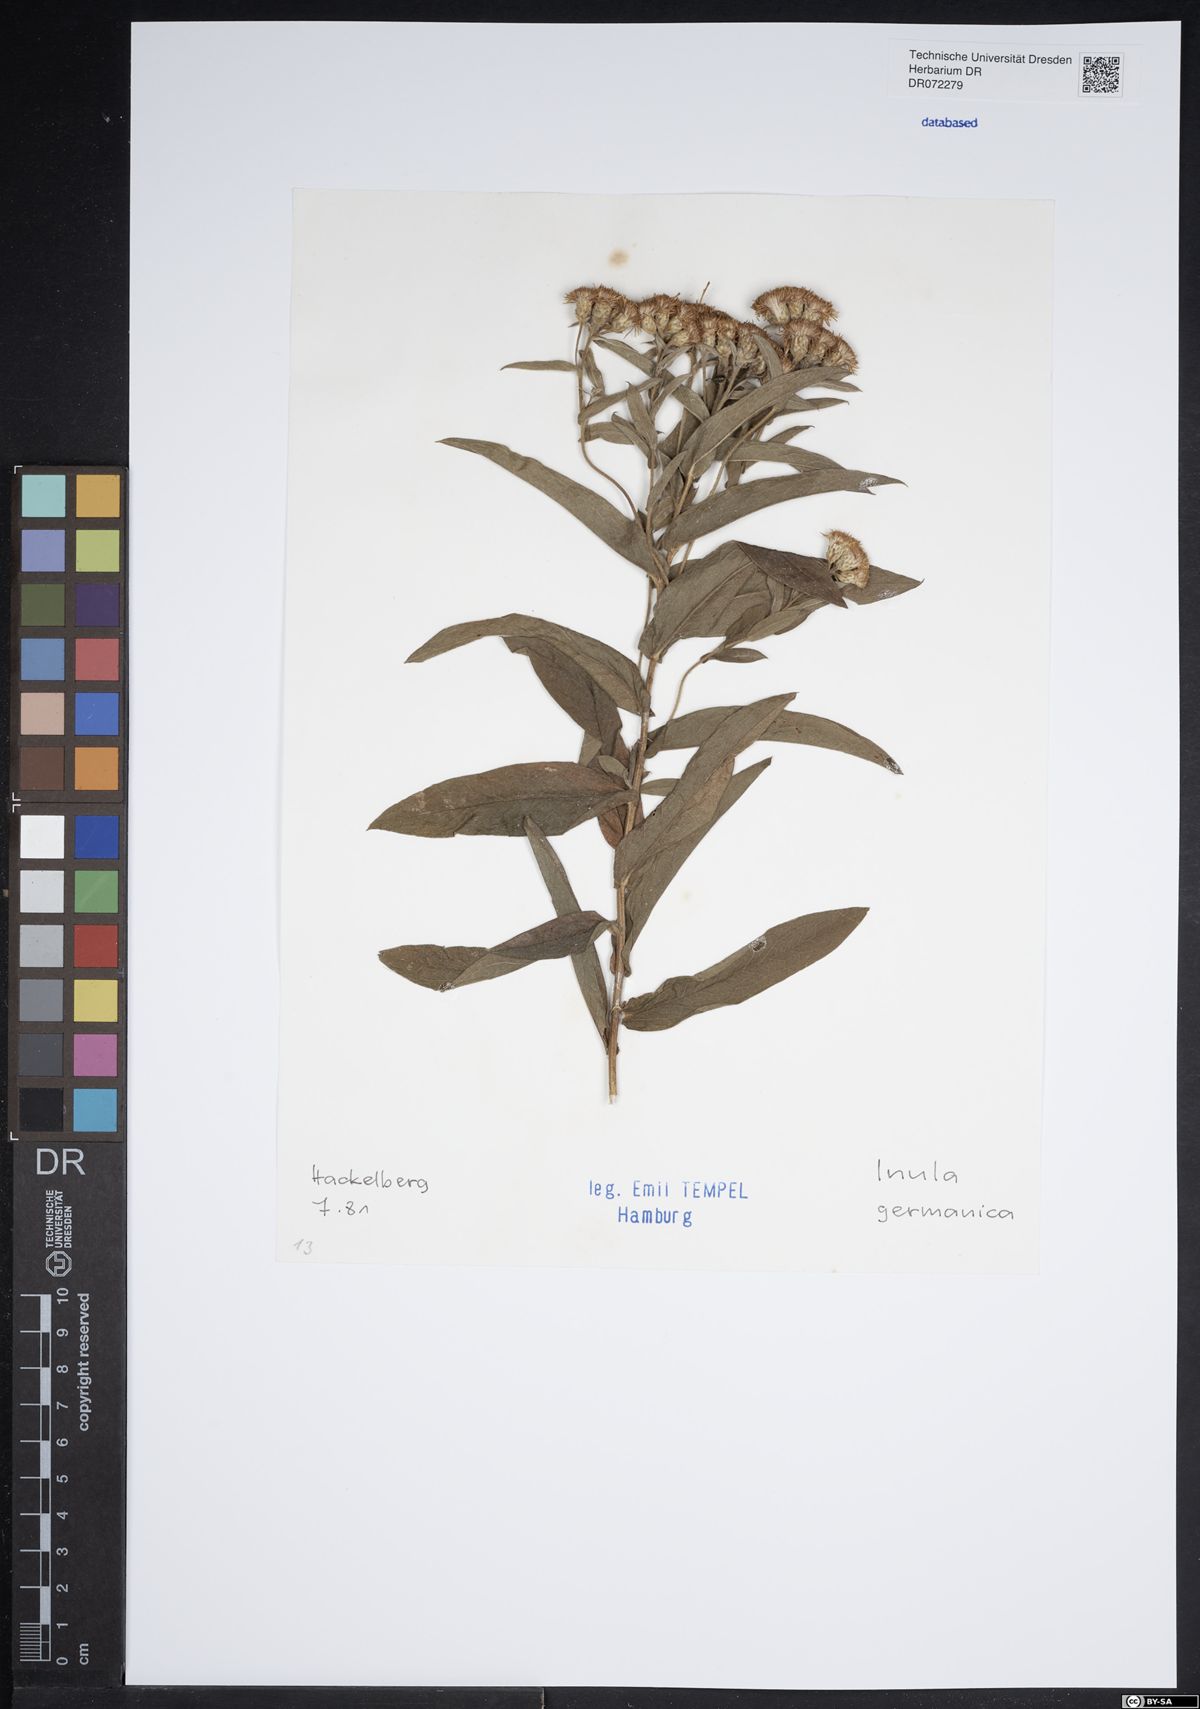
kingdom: Plantae
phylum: Tracheophyta
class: Magnoliopsida
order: Asterales
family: Asteraceae
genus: Pentanema
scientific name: Pentanema germanicum
